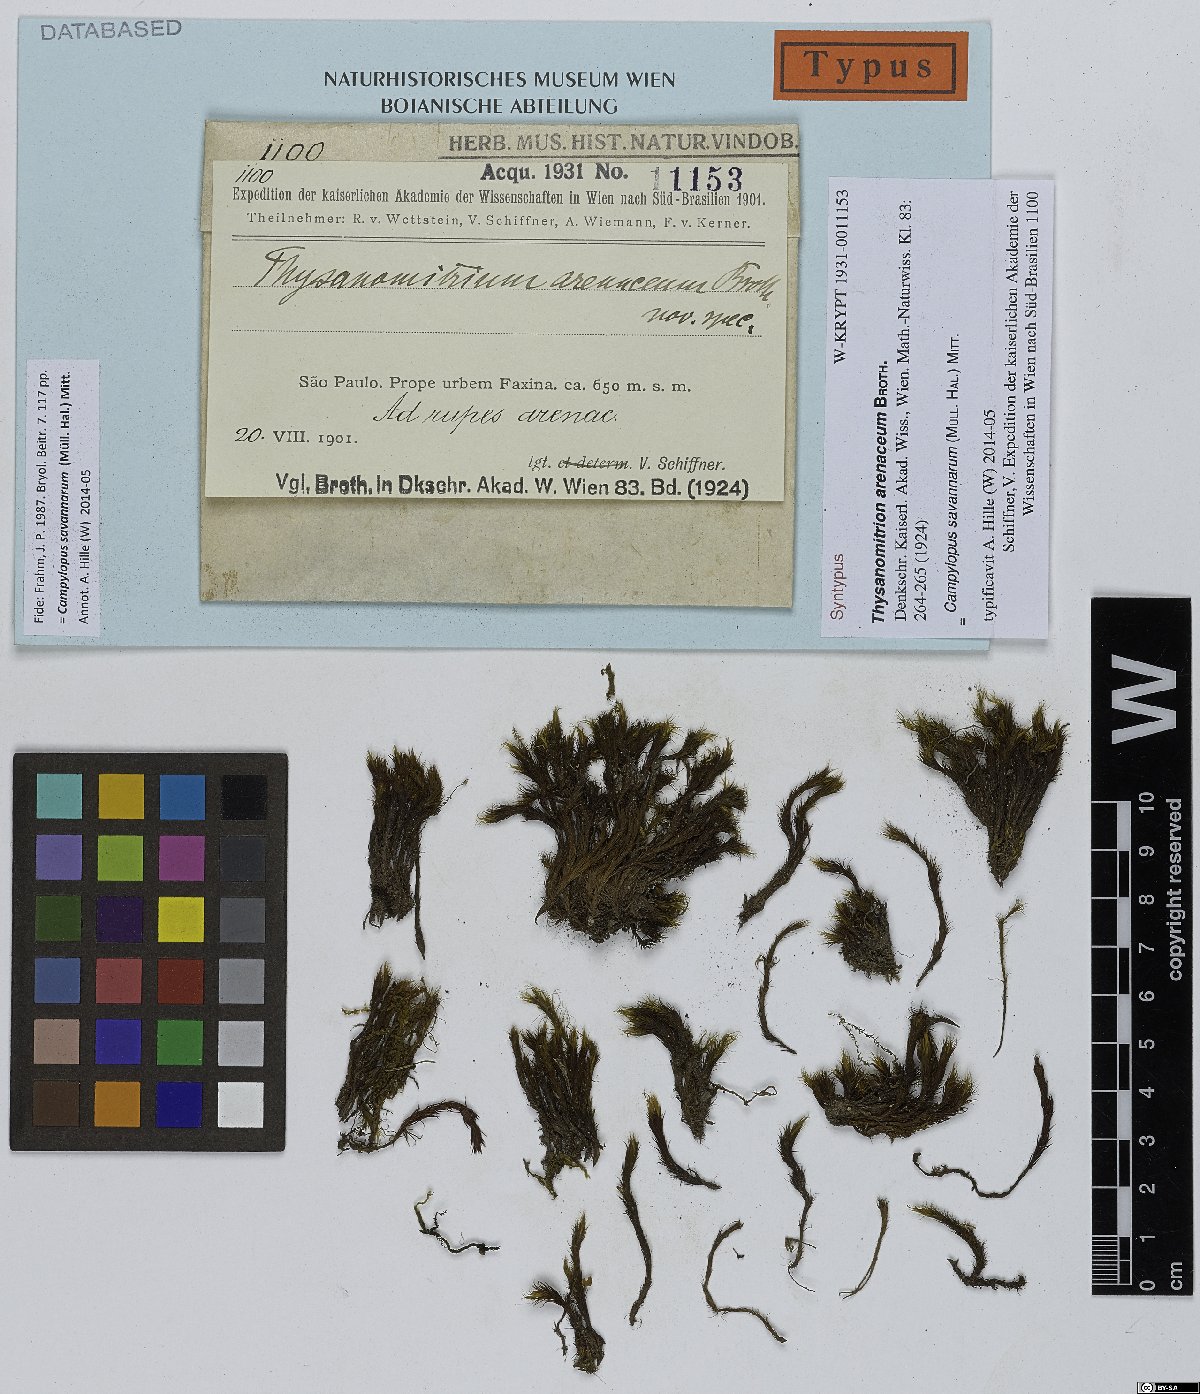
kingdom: Plantae
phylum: Bryophyta
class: Bryopsida
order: Dicranales
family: Leucobryaceae
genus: Campylopus
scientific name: Campylopus savannarum
